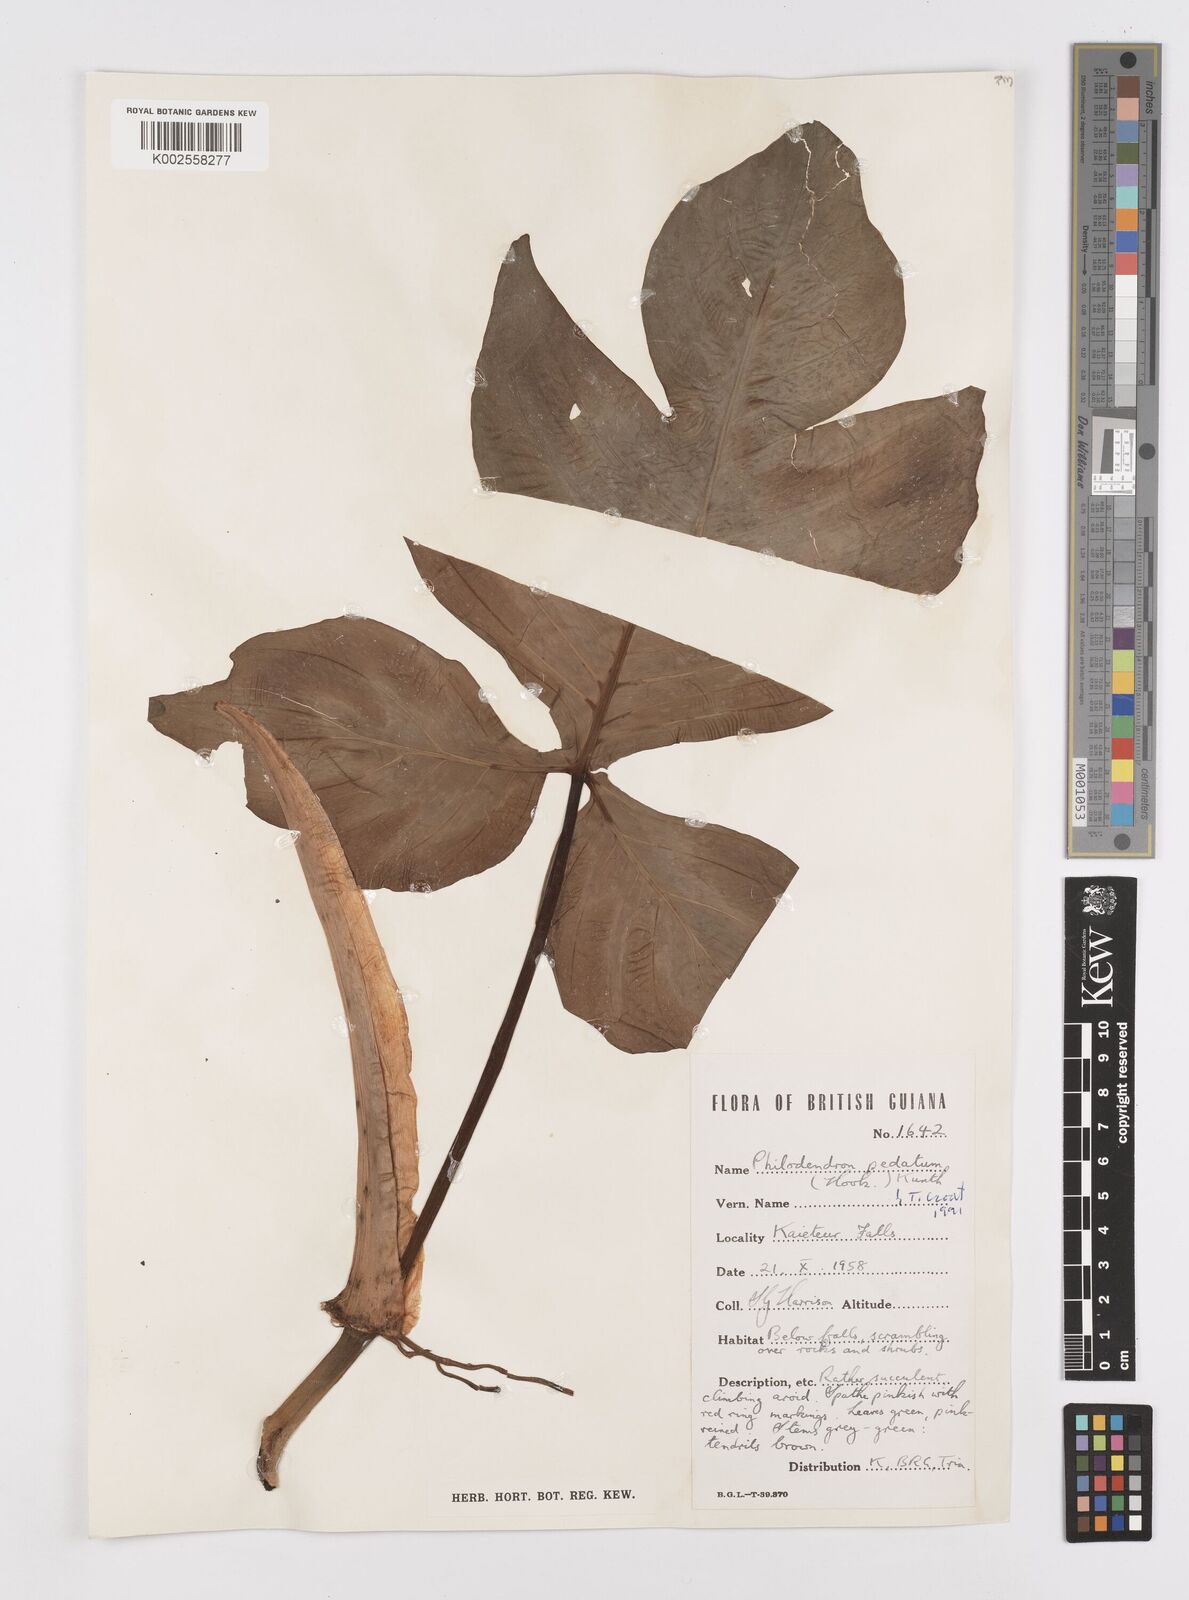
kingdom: Plantae
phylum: Tracheophyta
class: Liliopsida
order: Alismatales
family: Araceae
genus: Philodendron
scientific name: Philodendron pedatum
